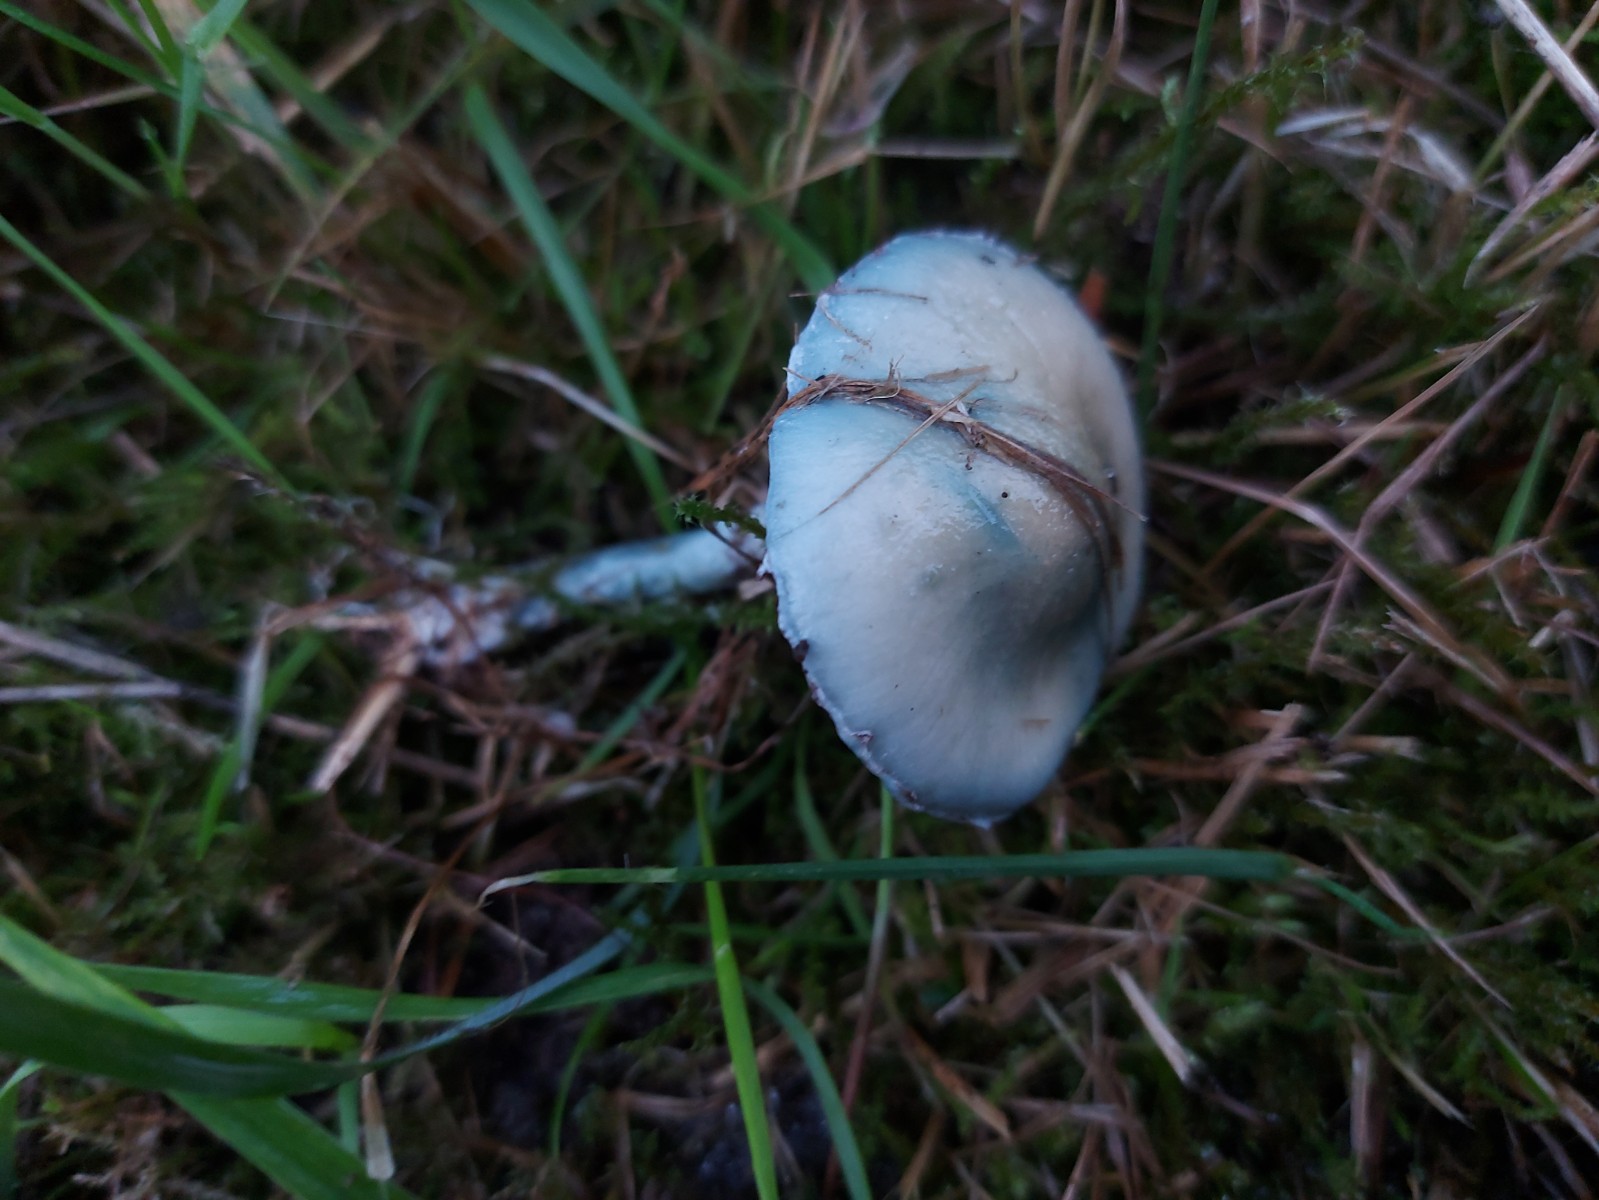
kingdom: Fungi
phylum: Basidiomycota
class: Agaricomycetes
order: Agaricales
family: Strophariaceae
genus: Stropharia
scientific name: Stropharia cyanea
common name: blågrøn bredblad
